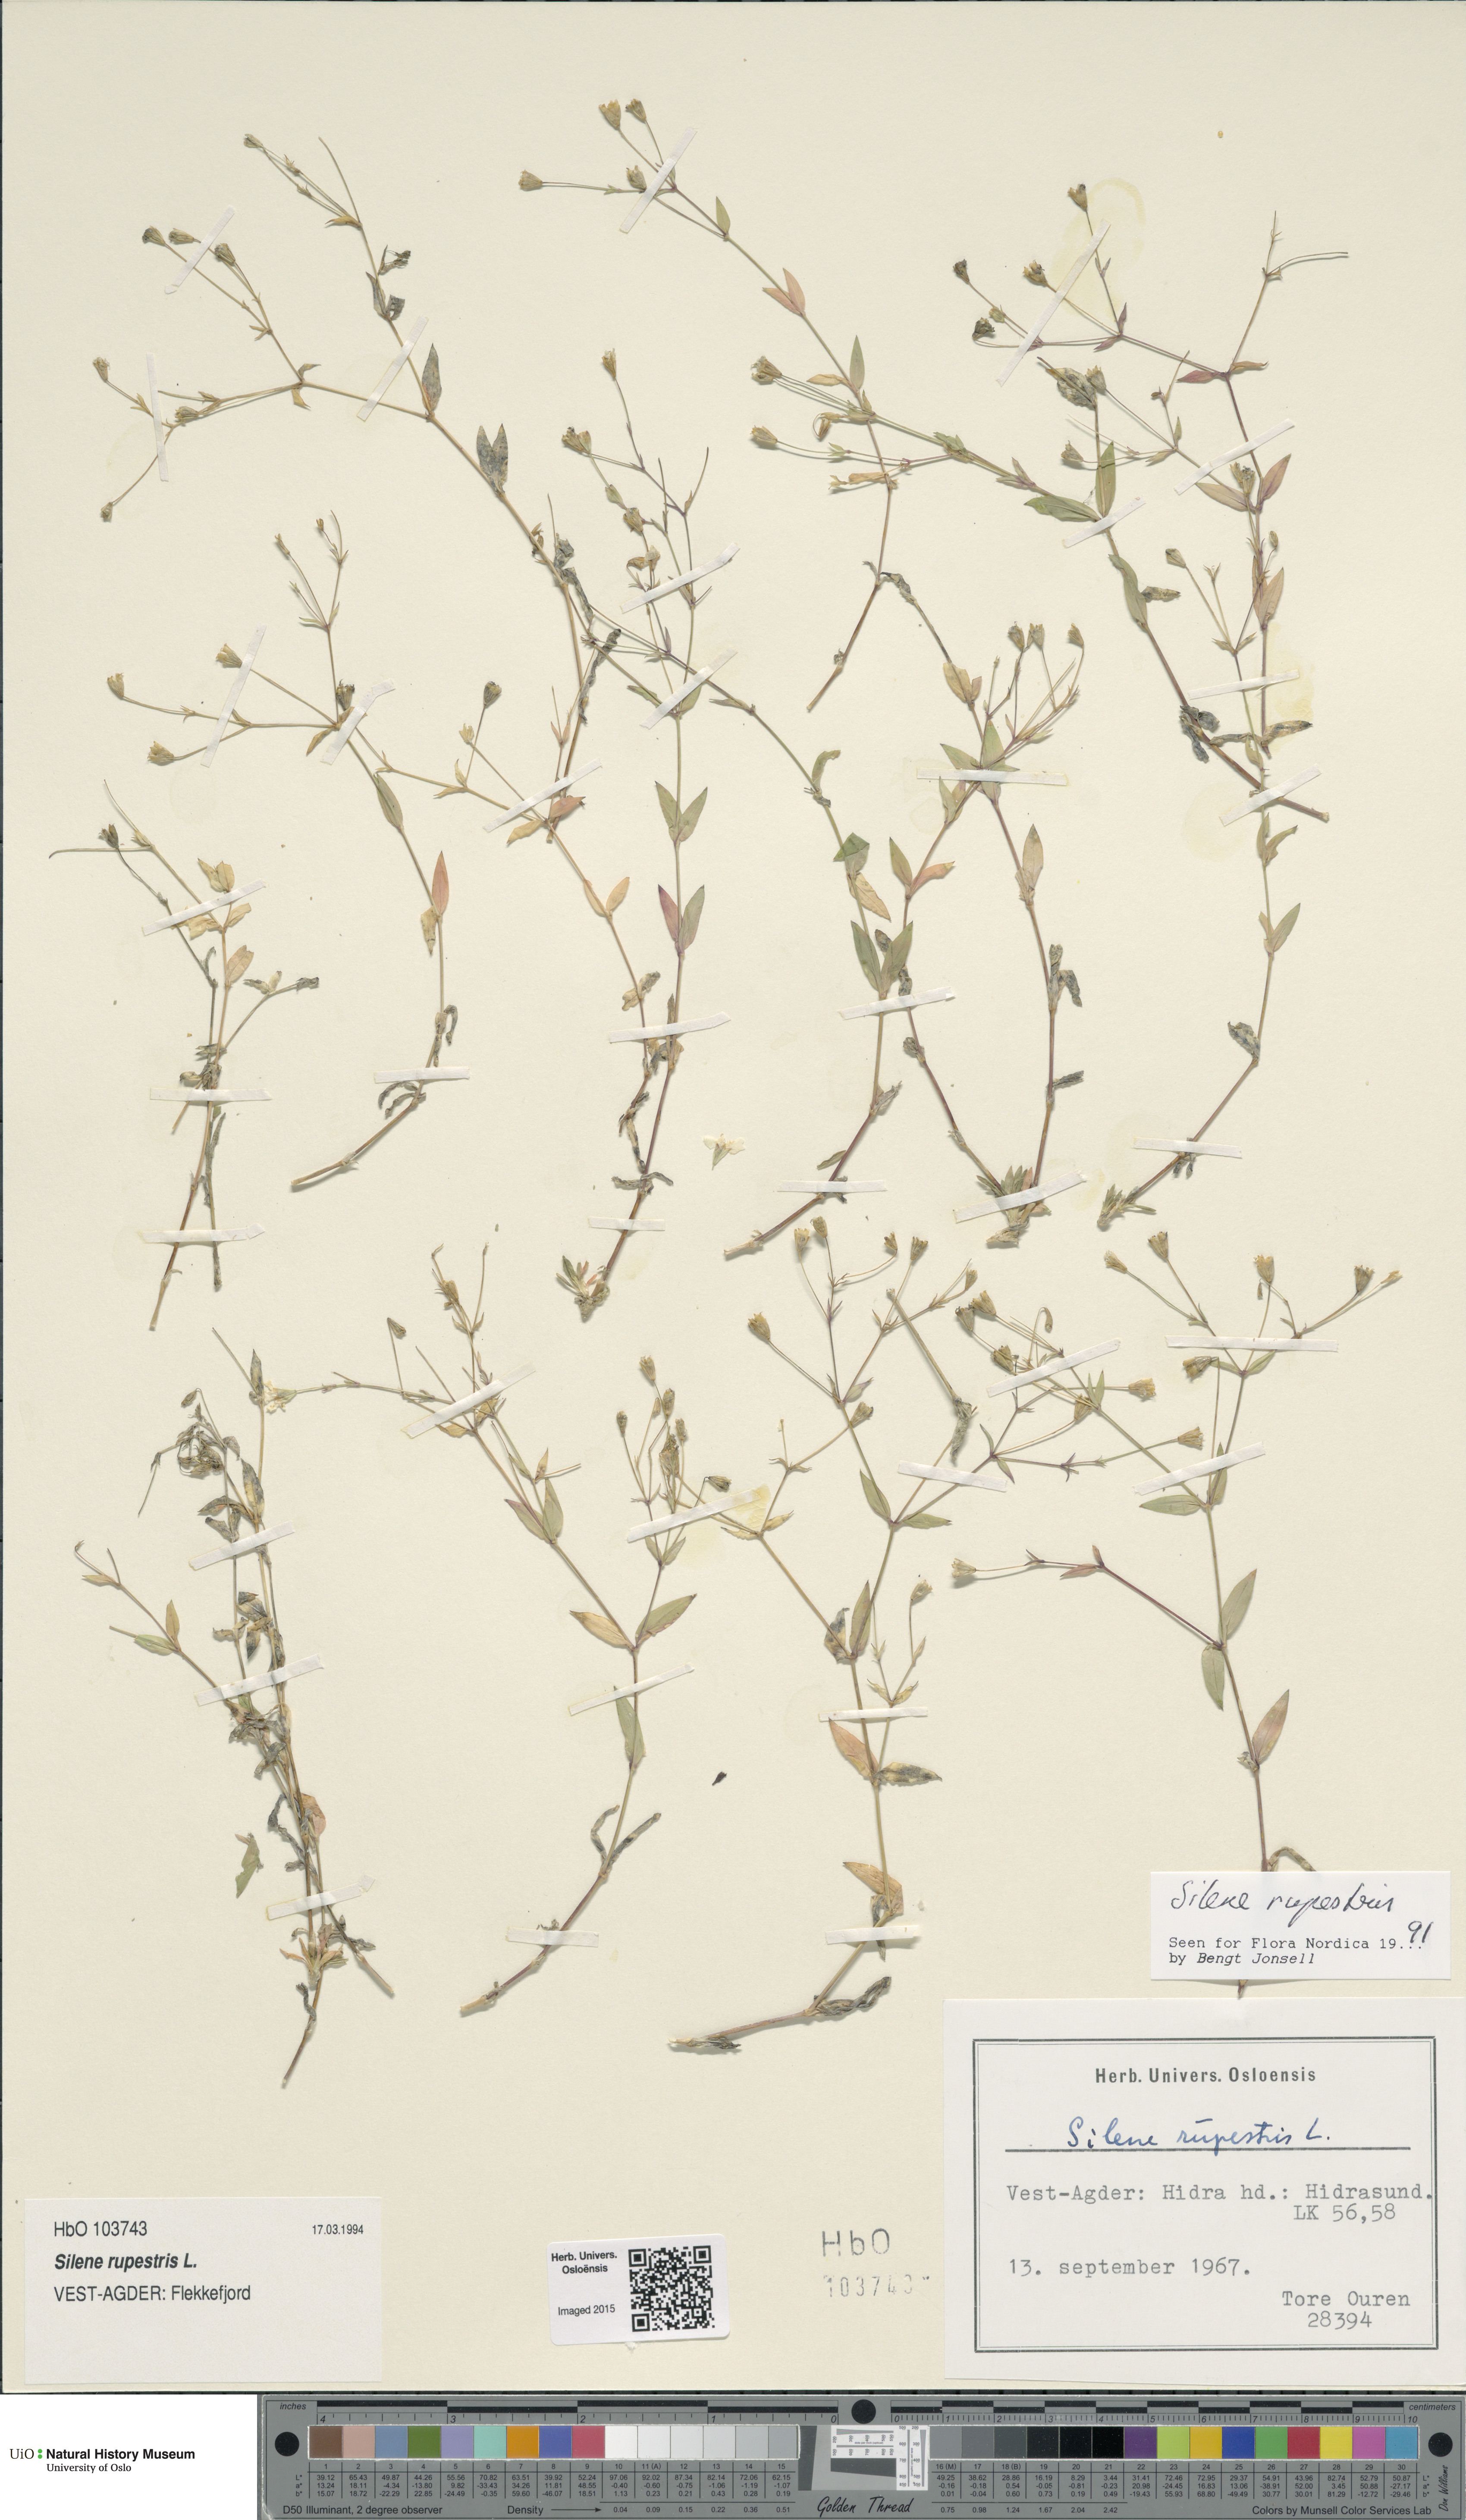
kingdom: Plantae
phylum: Tracheophyta
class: Magnoliopsida
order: Caryophyllales
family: Caryophyllaceae
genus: Atocion
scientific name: Atocion rupestre
